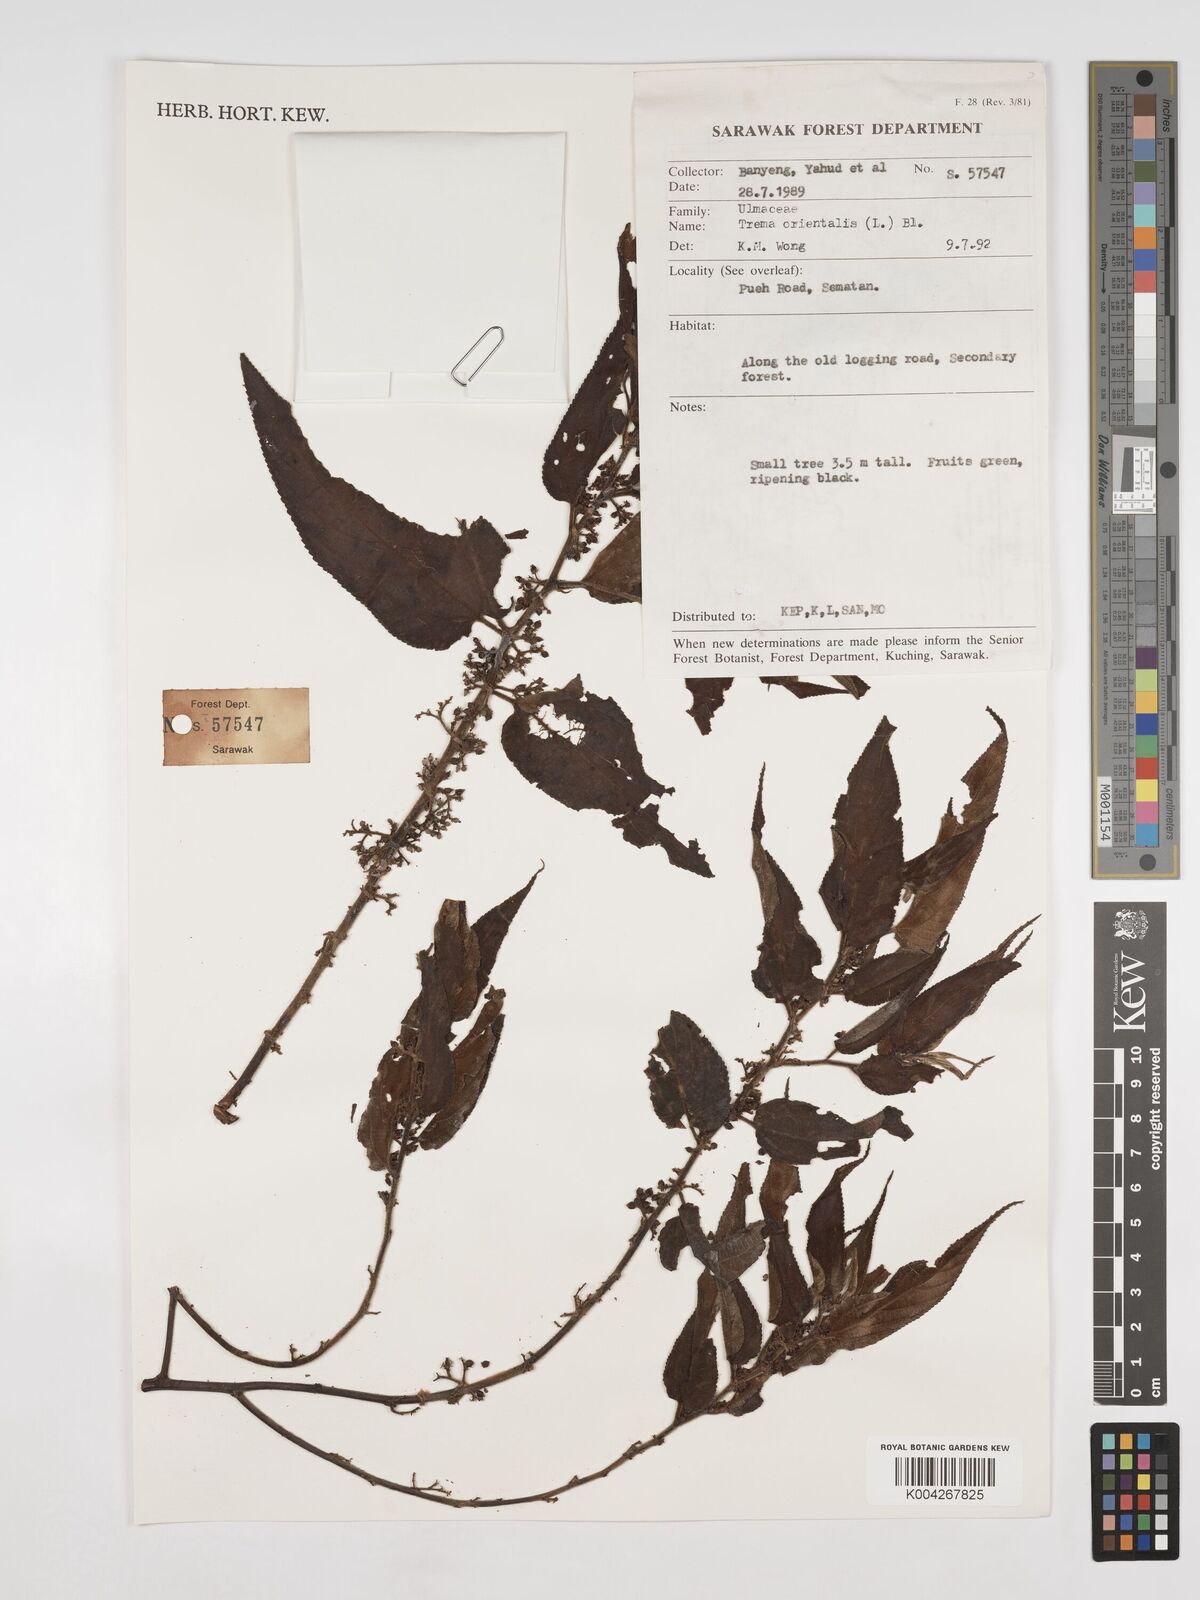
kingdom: Plantae
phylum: Tracheophyta
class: Magnoliopsida
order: Rosales
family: Cannabaceae
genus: Trema
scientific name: Trema orientale
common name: Indian charcoal tree
